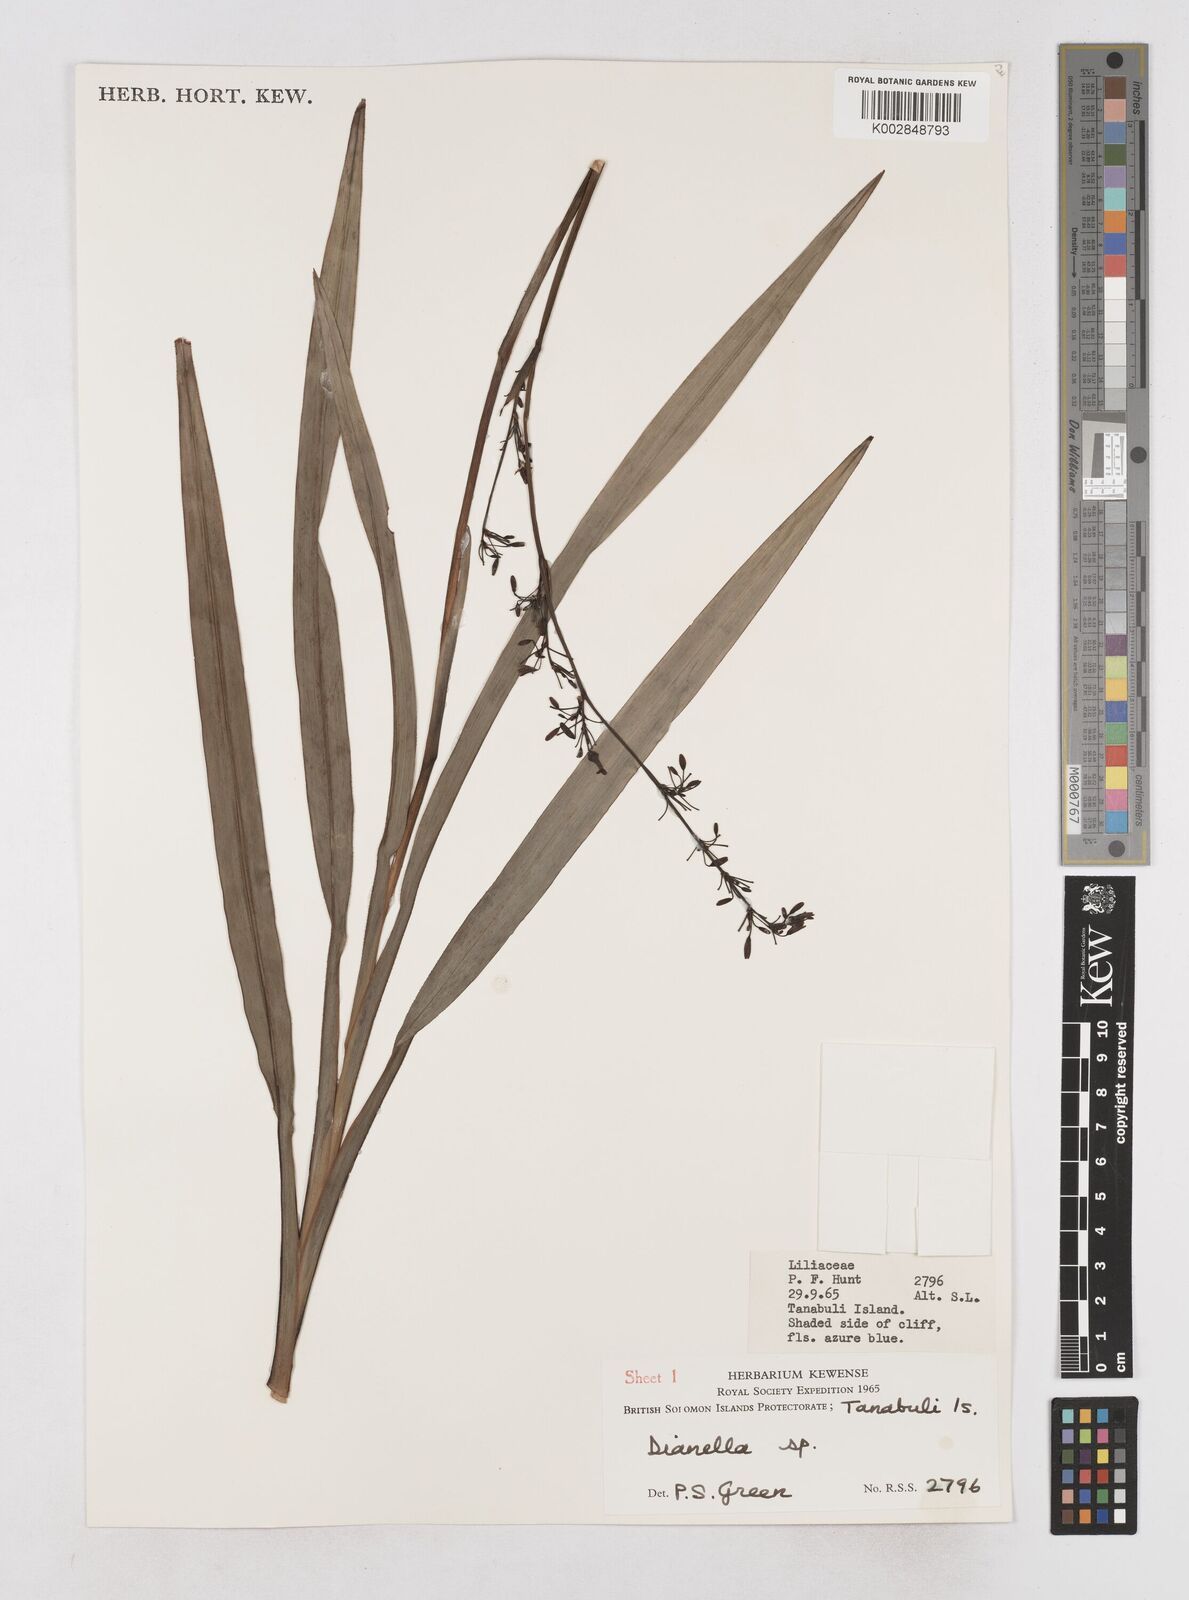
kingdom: Plantae
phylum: Tracheophyta
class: Liliopsida
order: Asparagales
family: Asphodelaceae
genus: Dianella
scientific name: Dianella
